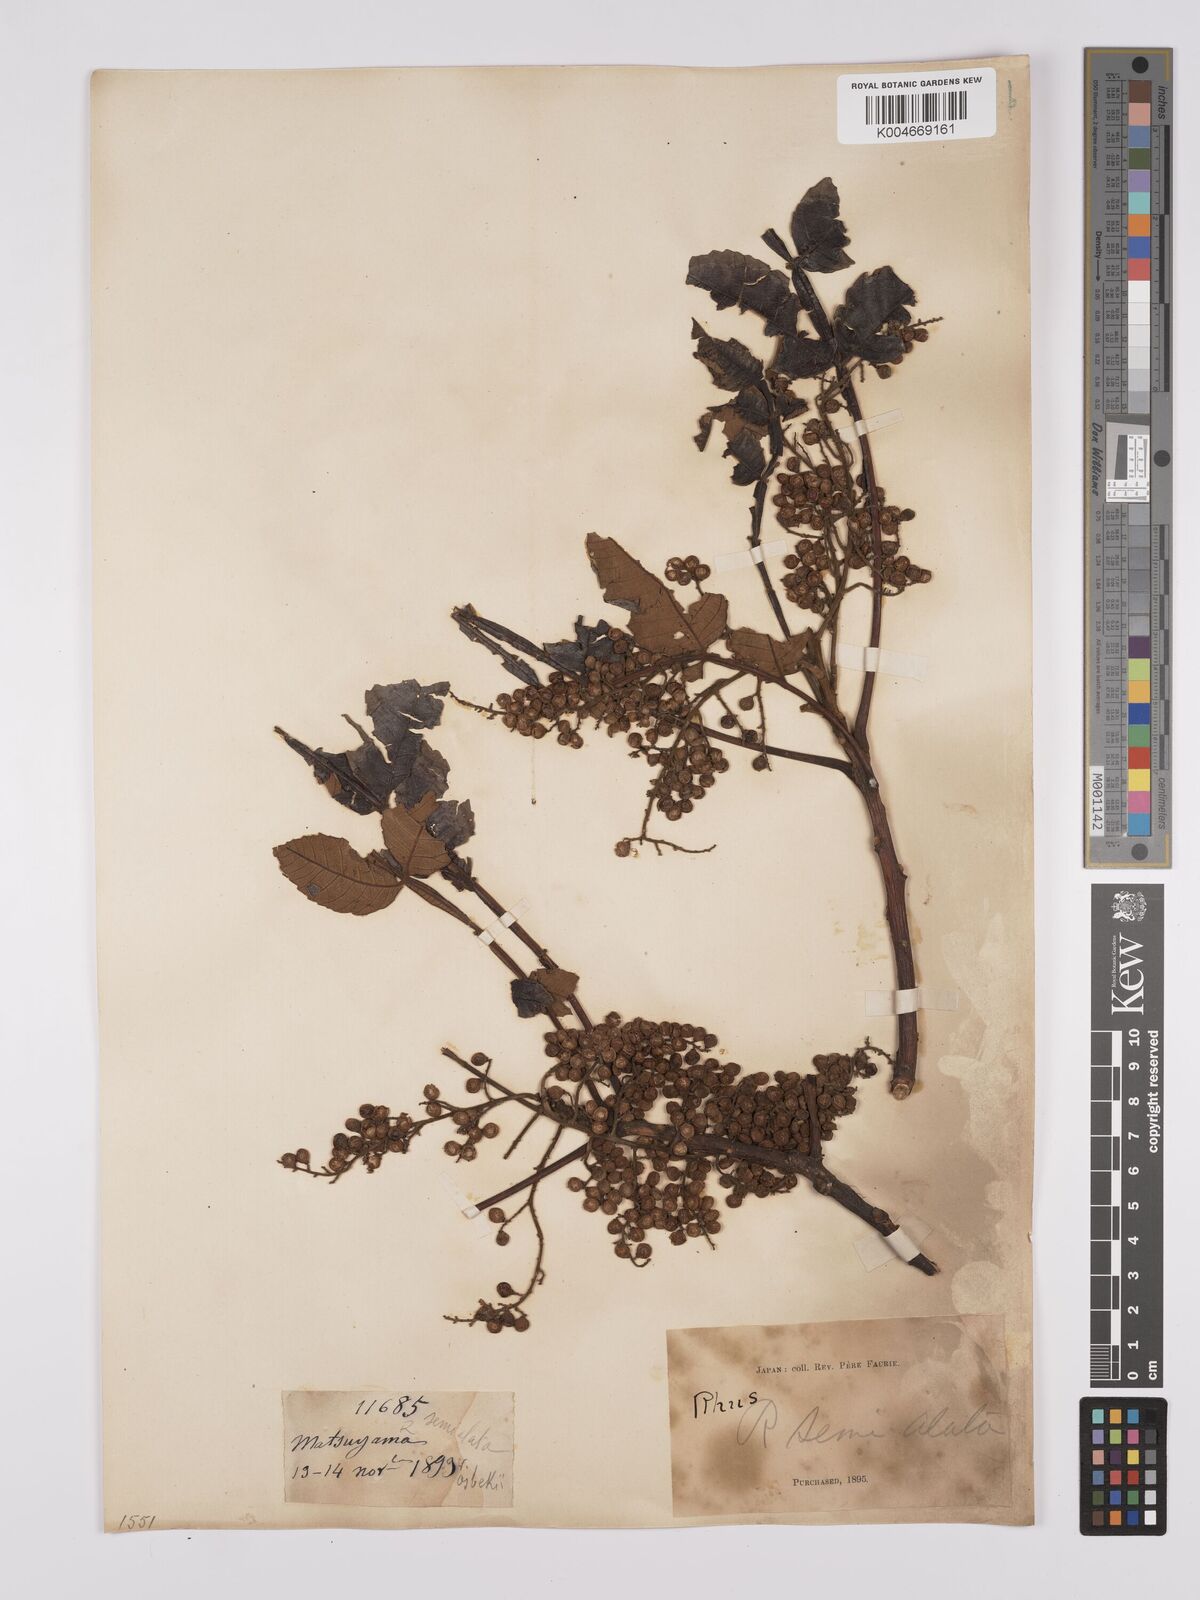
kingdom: Plantae
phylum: Tracheophyta
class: Magnoliopsida
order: Sapindales
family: Anacardiaceae
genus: Rhus
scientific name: Rhus chinensis
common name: Chinese gall
